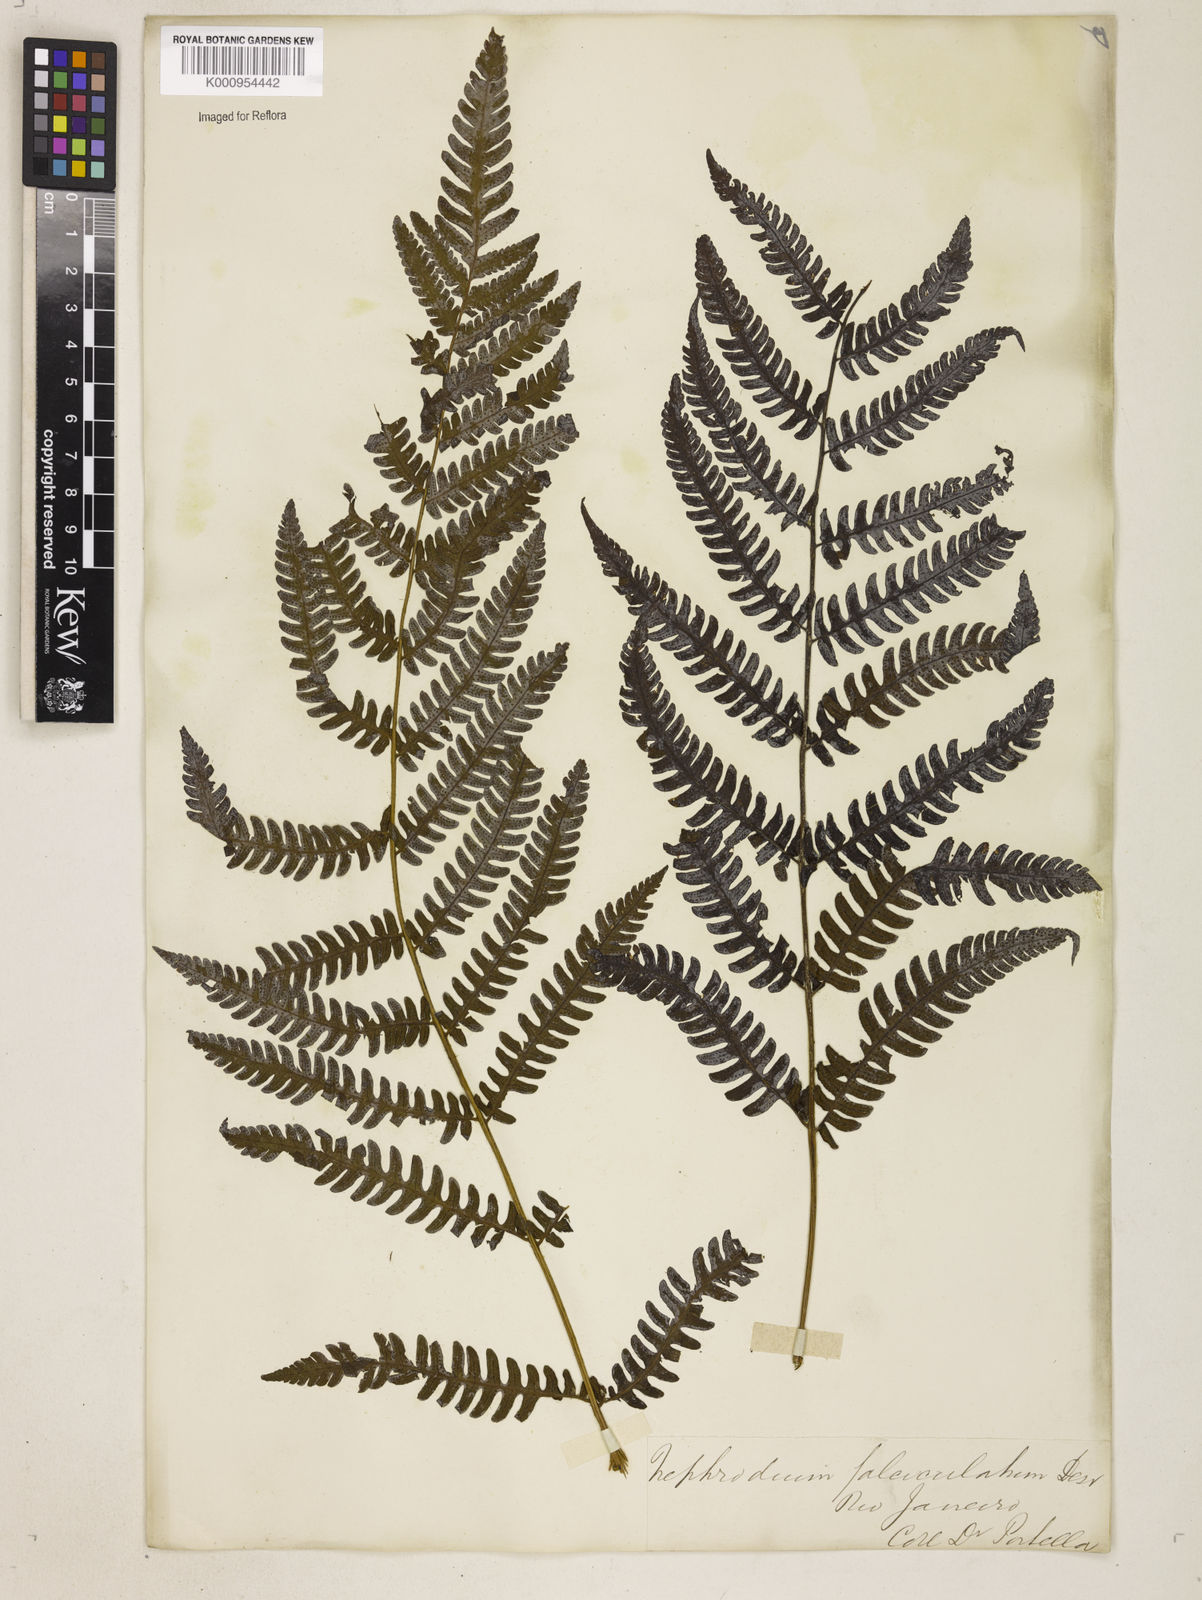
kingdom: Plantae
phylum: Tracheophyta
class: Polypodiopsida
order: Polypodiales
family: Dryopteridaceae
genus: Ctenitis
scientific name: Ctenitis falciculata
